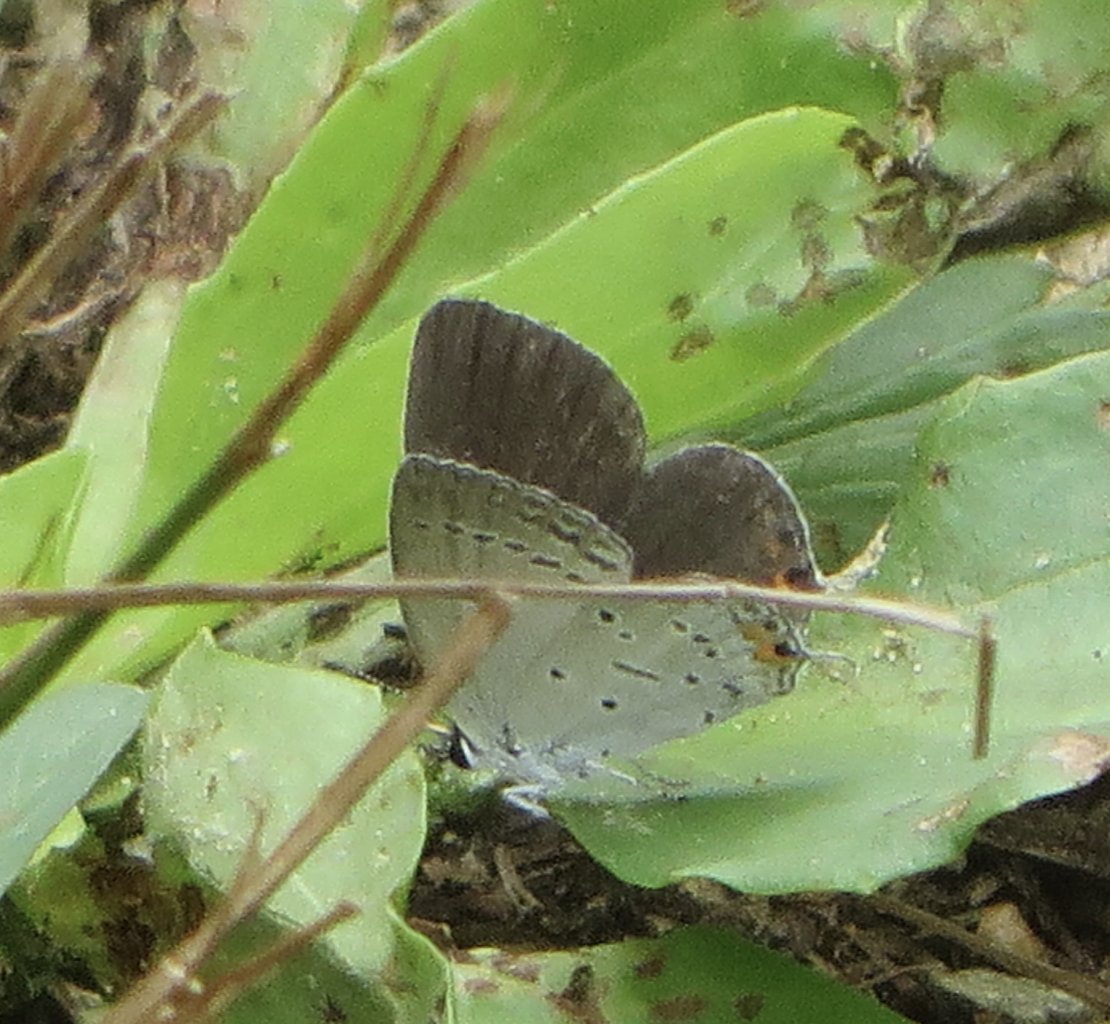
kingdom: Animalia
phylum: Arthropoda
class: Insecta
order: Lepidoptera
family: Lycaenidae
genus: Elkalyce
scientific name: Elkalyce comyntas
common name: Eastern Tailed-Blue
